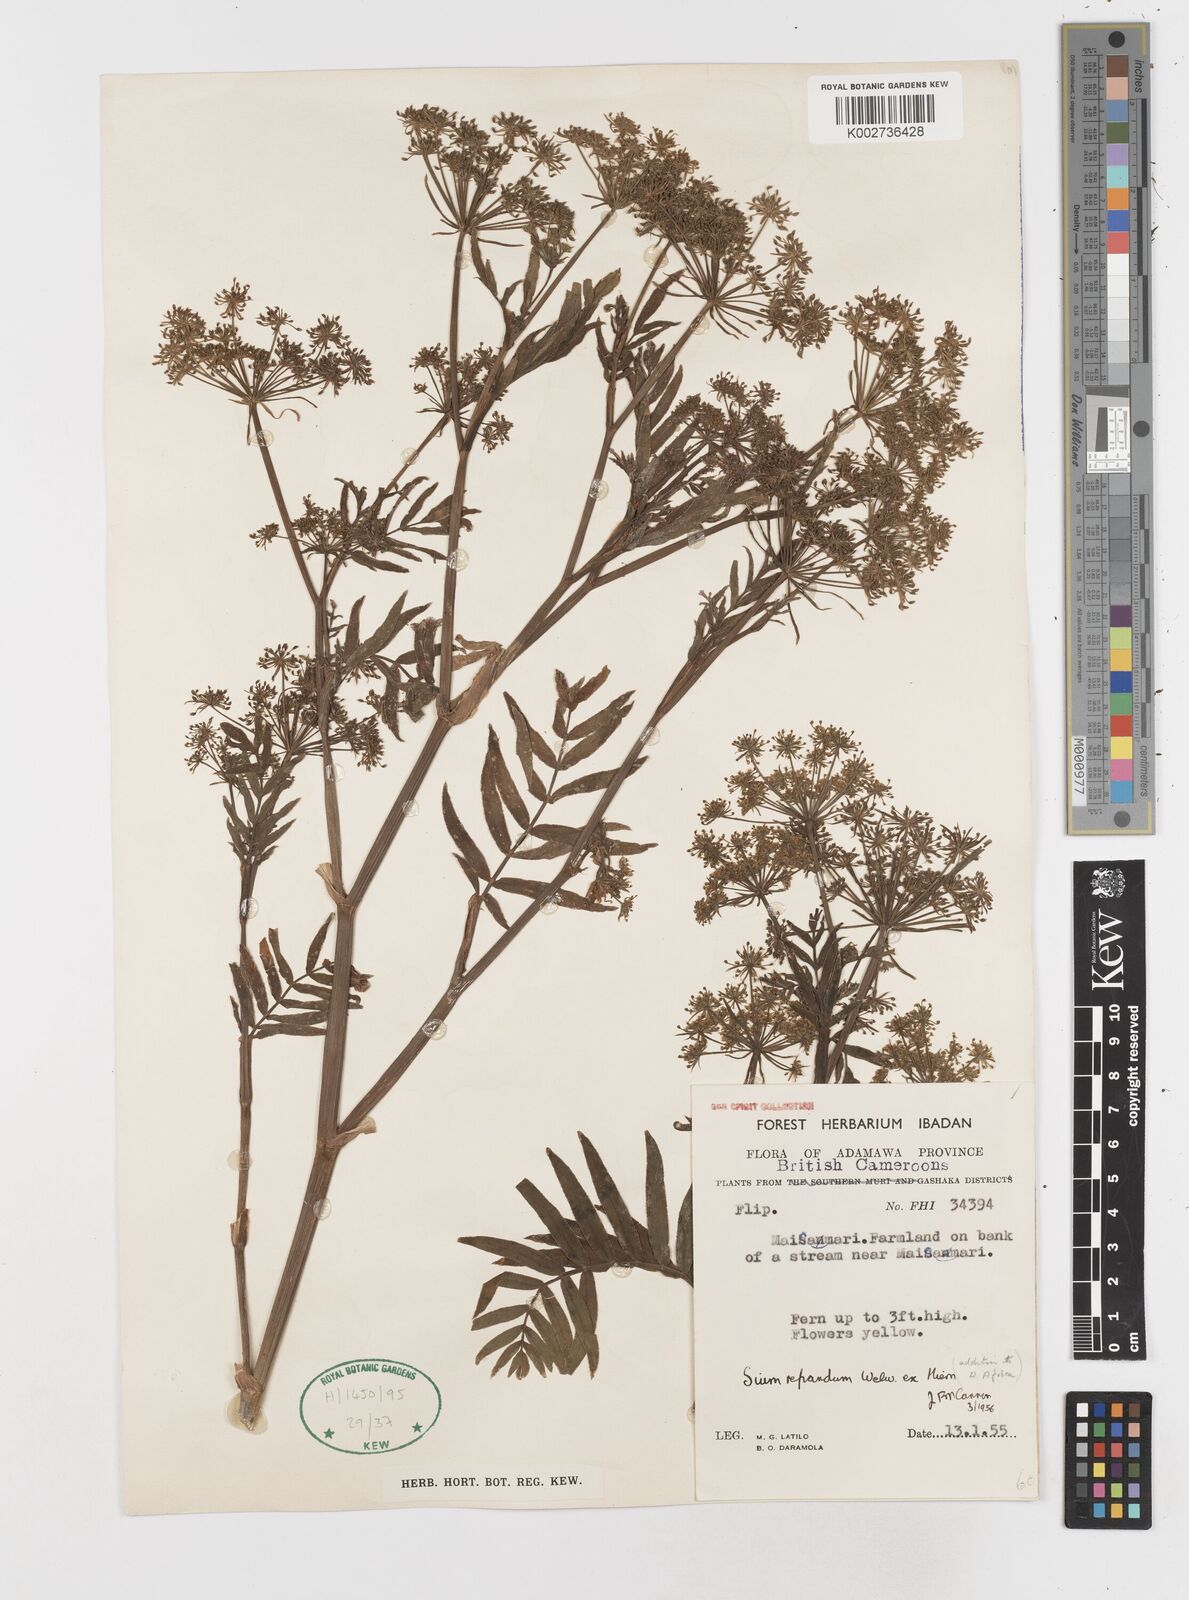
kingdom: Plantae
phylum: Tracheophyta
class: Magnoliopsida
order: Apiales
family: Apiaceae
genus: Berula
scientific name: Berula repanda
